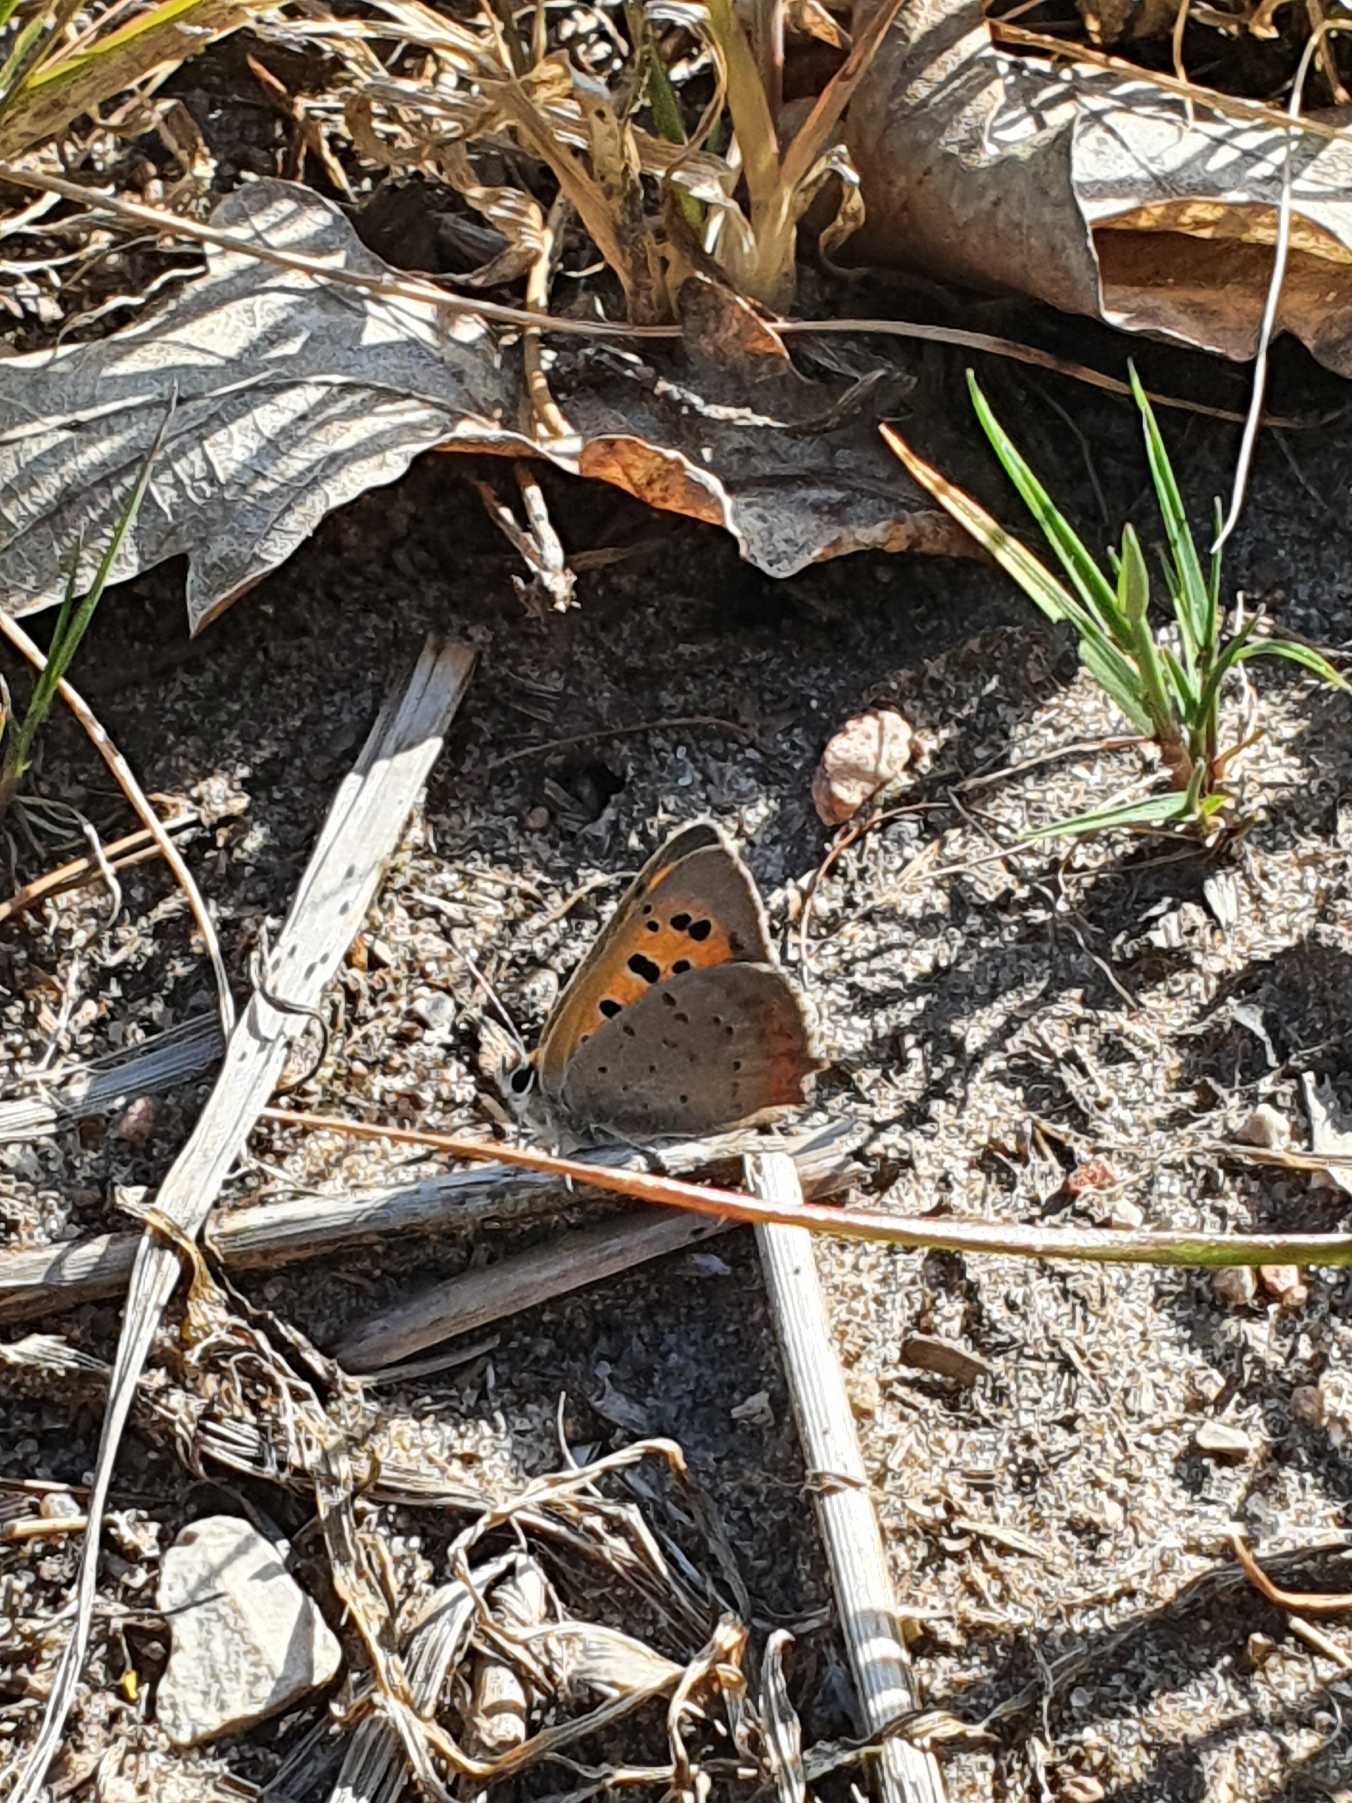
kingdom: Animalia
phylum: Arthropoda
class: Insecta
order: Lepidoptera
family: Lycaenidae
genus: Lycaena
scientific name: Lycaena phlaeas
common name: Lille ildfugl
